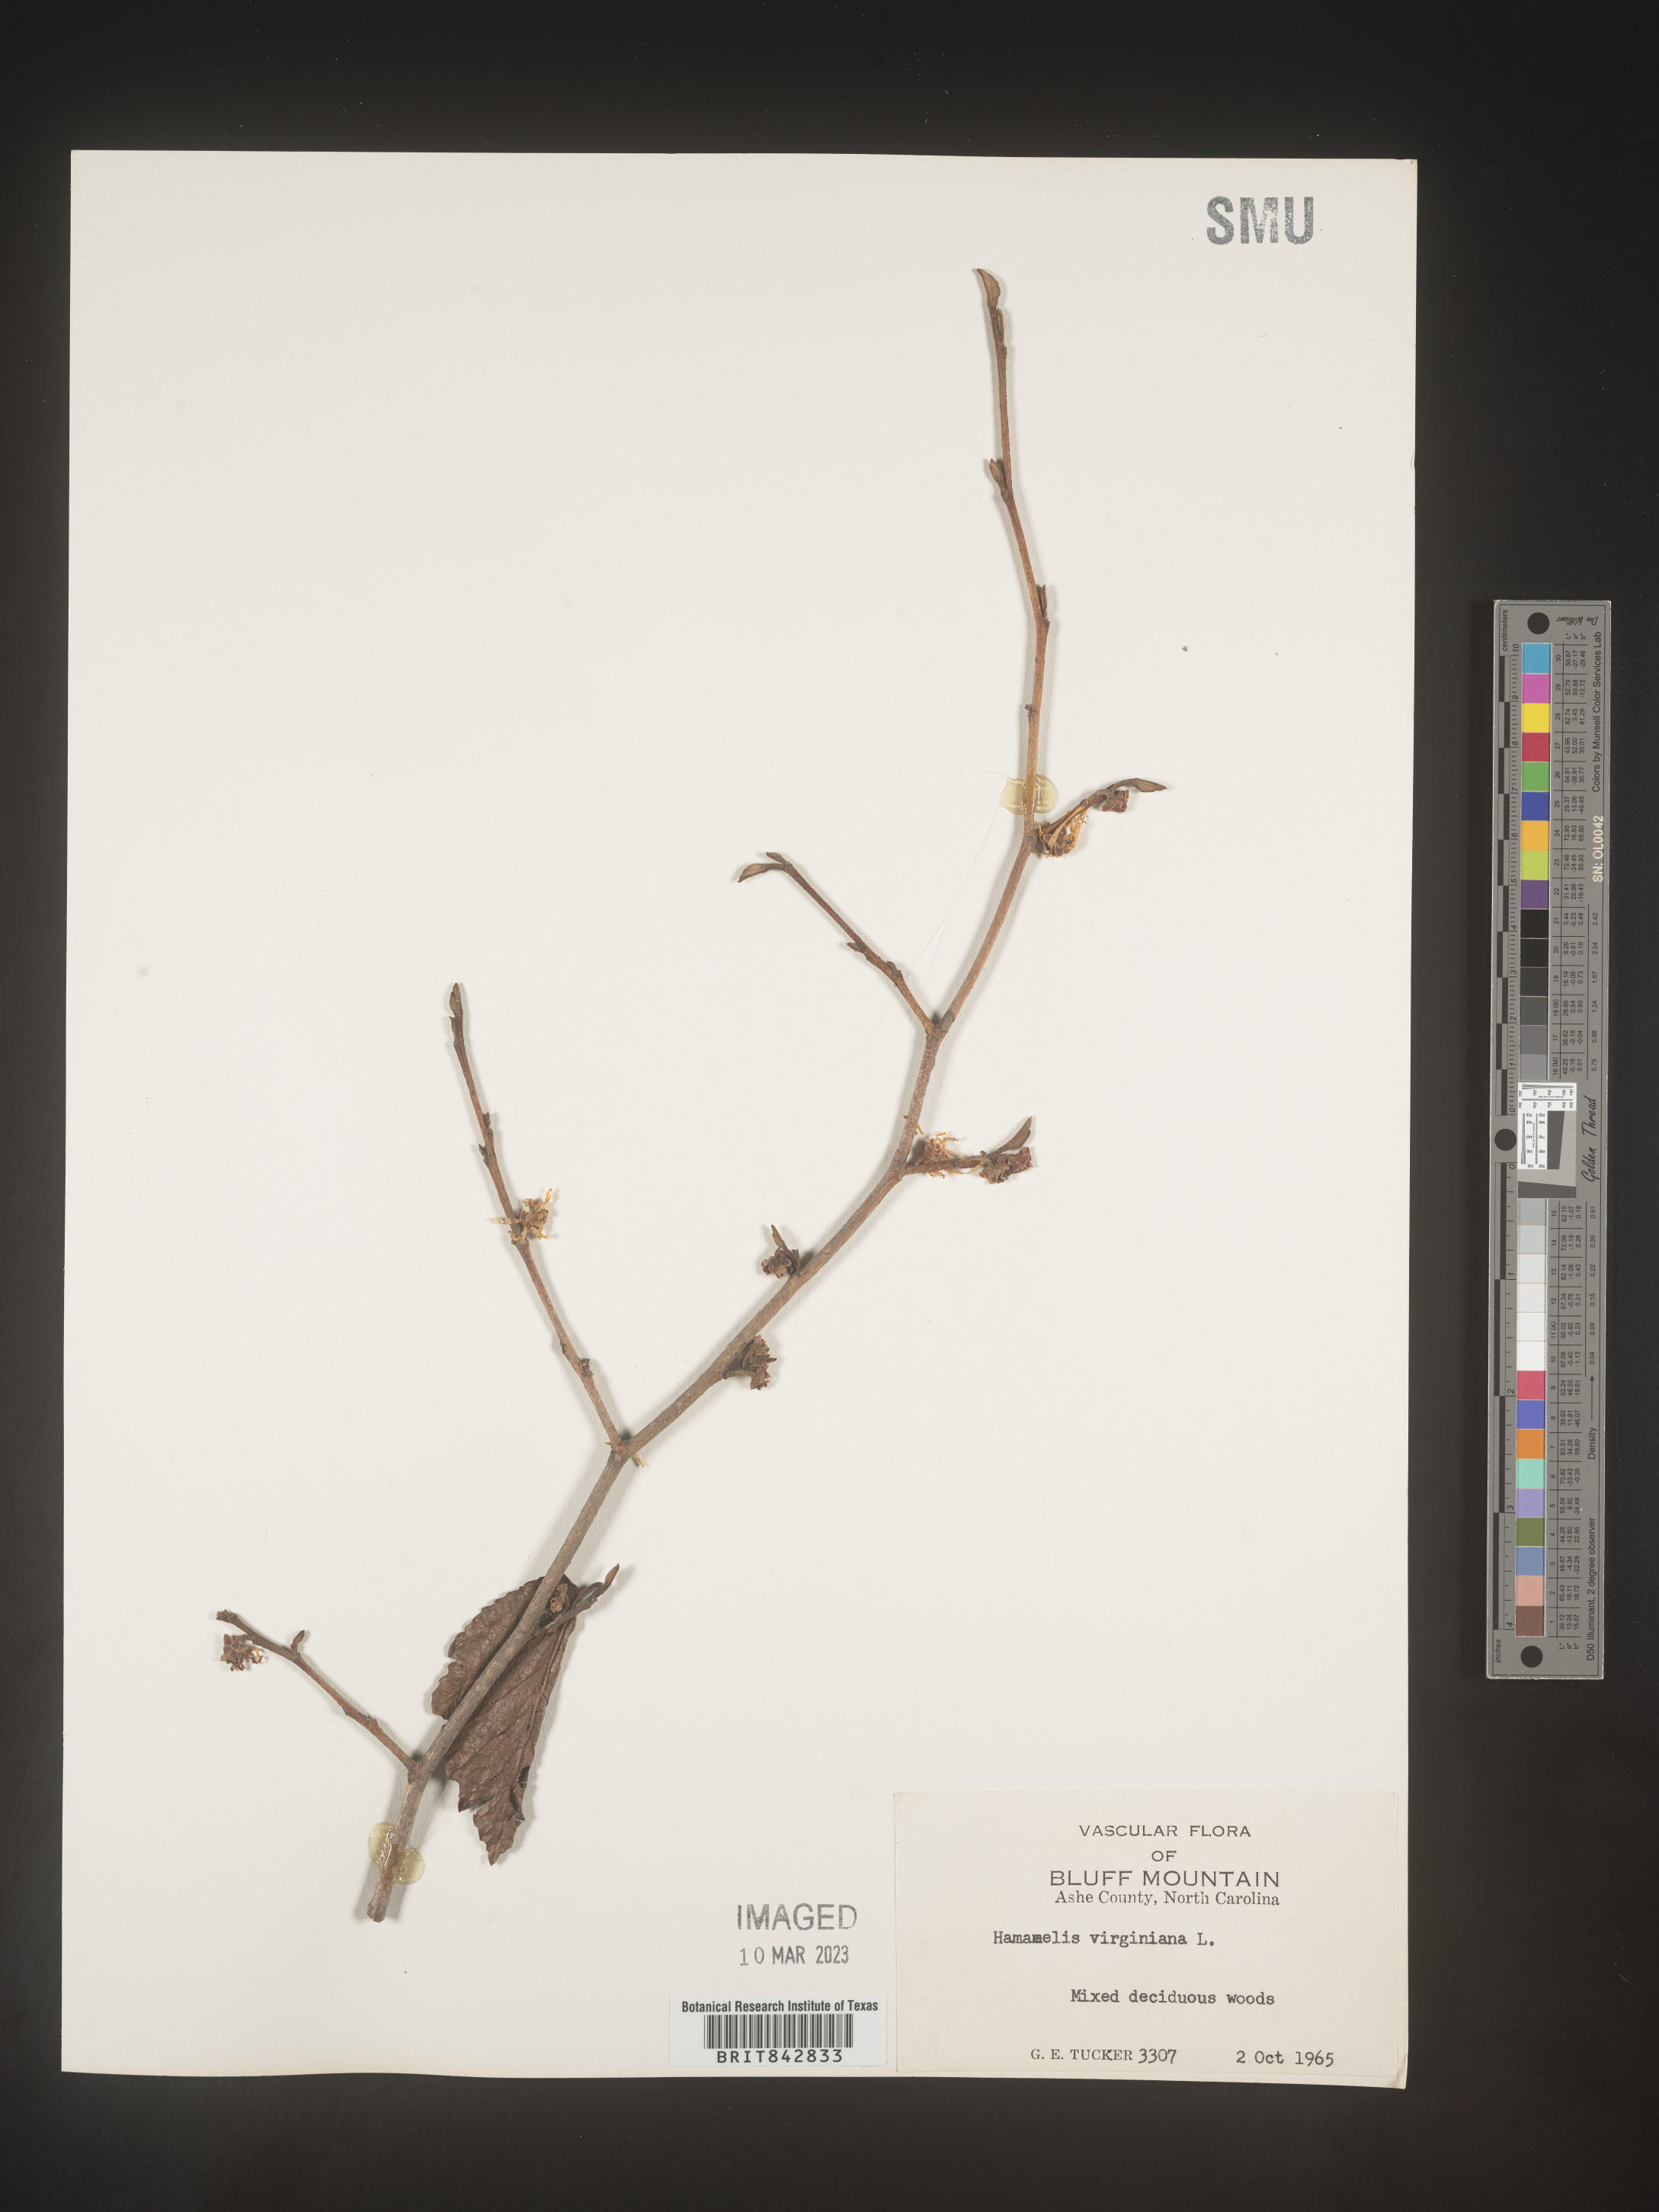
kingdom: Plantae
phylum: Tracheophyta
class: Magnoliopsida
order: Saxifragales
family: Hamamelidaceae
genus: Hamamelis
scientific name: Hamamelis virginiana
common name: Witch-hazel
